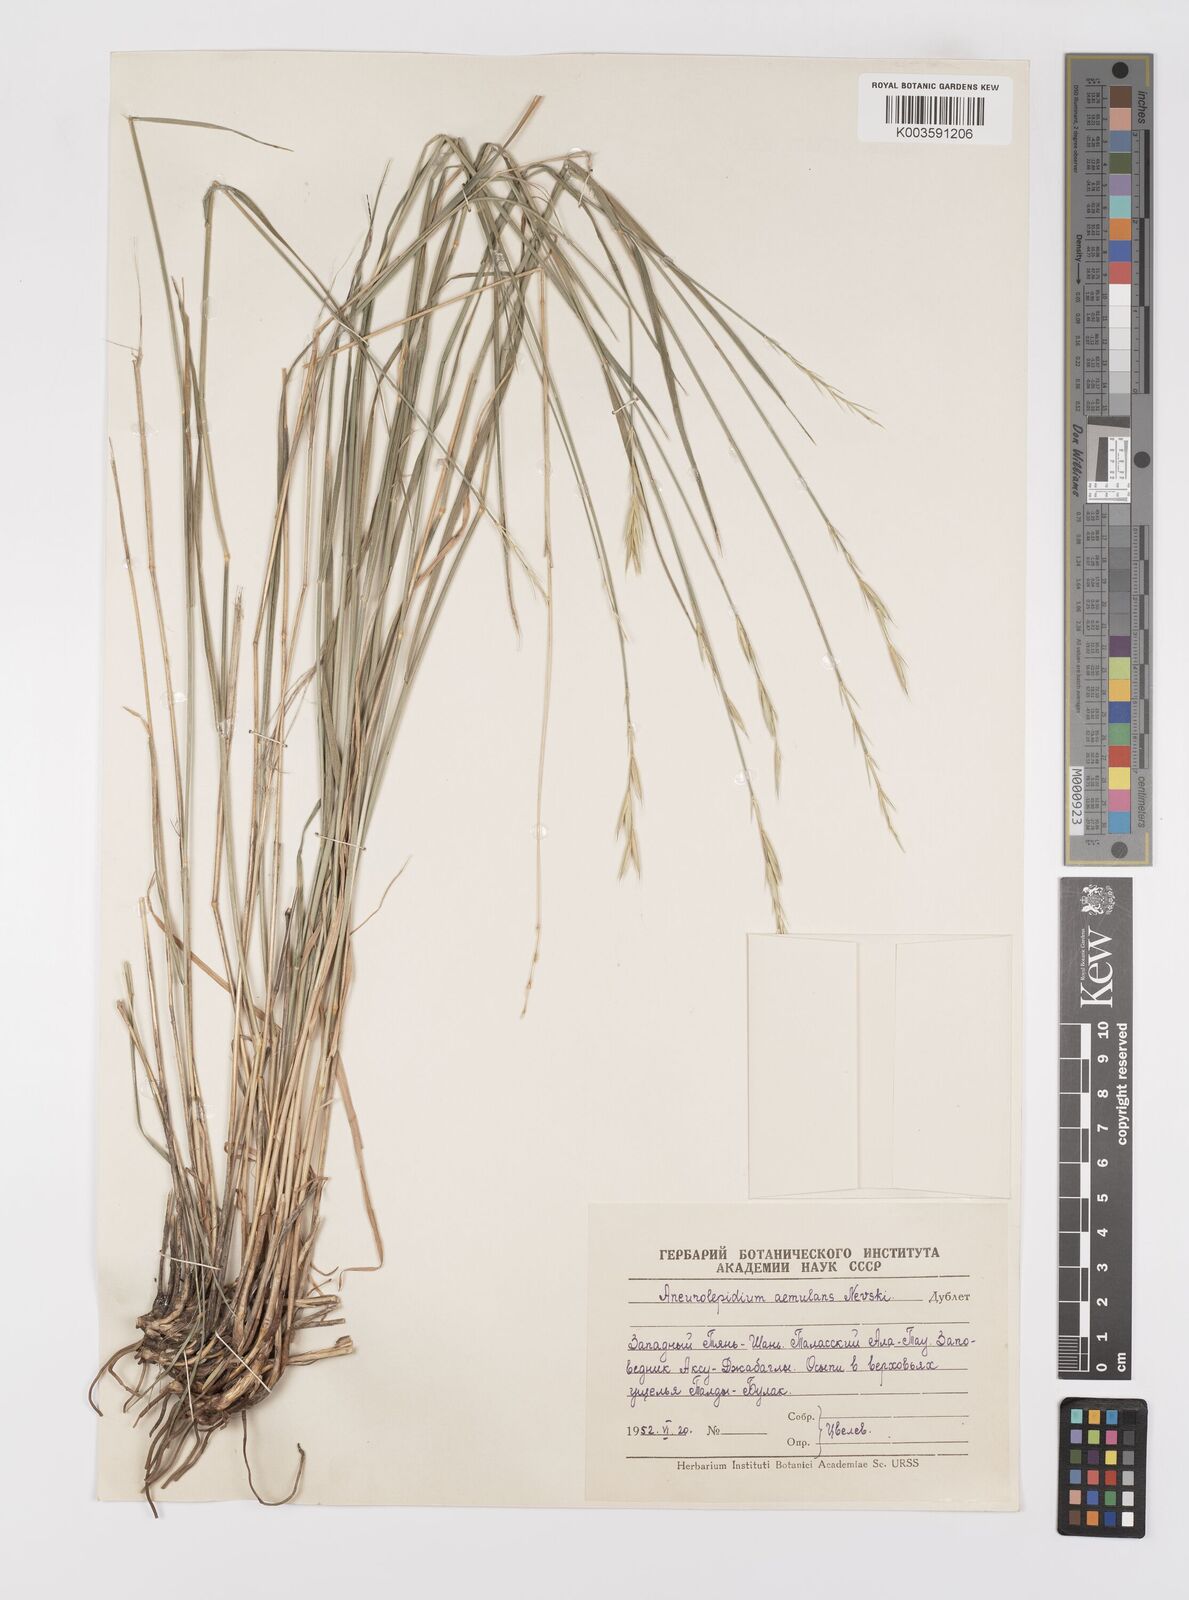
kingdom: Plantae
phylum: Tracheophyta
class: Liliopsida
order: Poales
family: Poaceae
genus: Leymus
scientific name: Leymus aemulans
